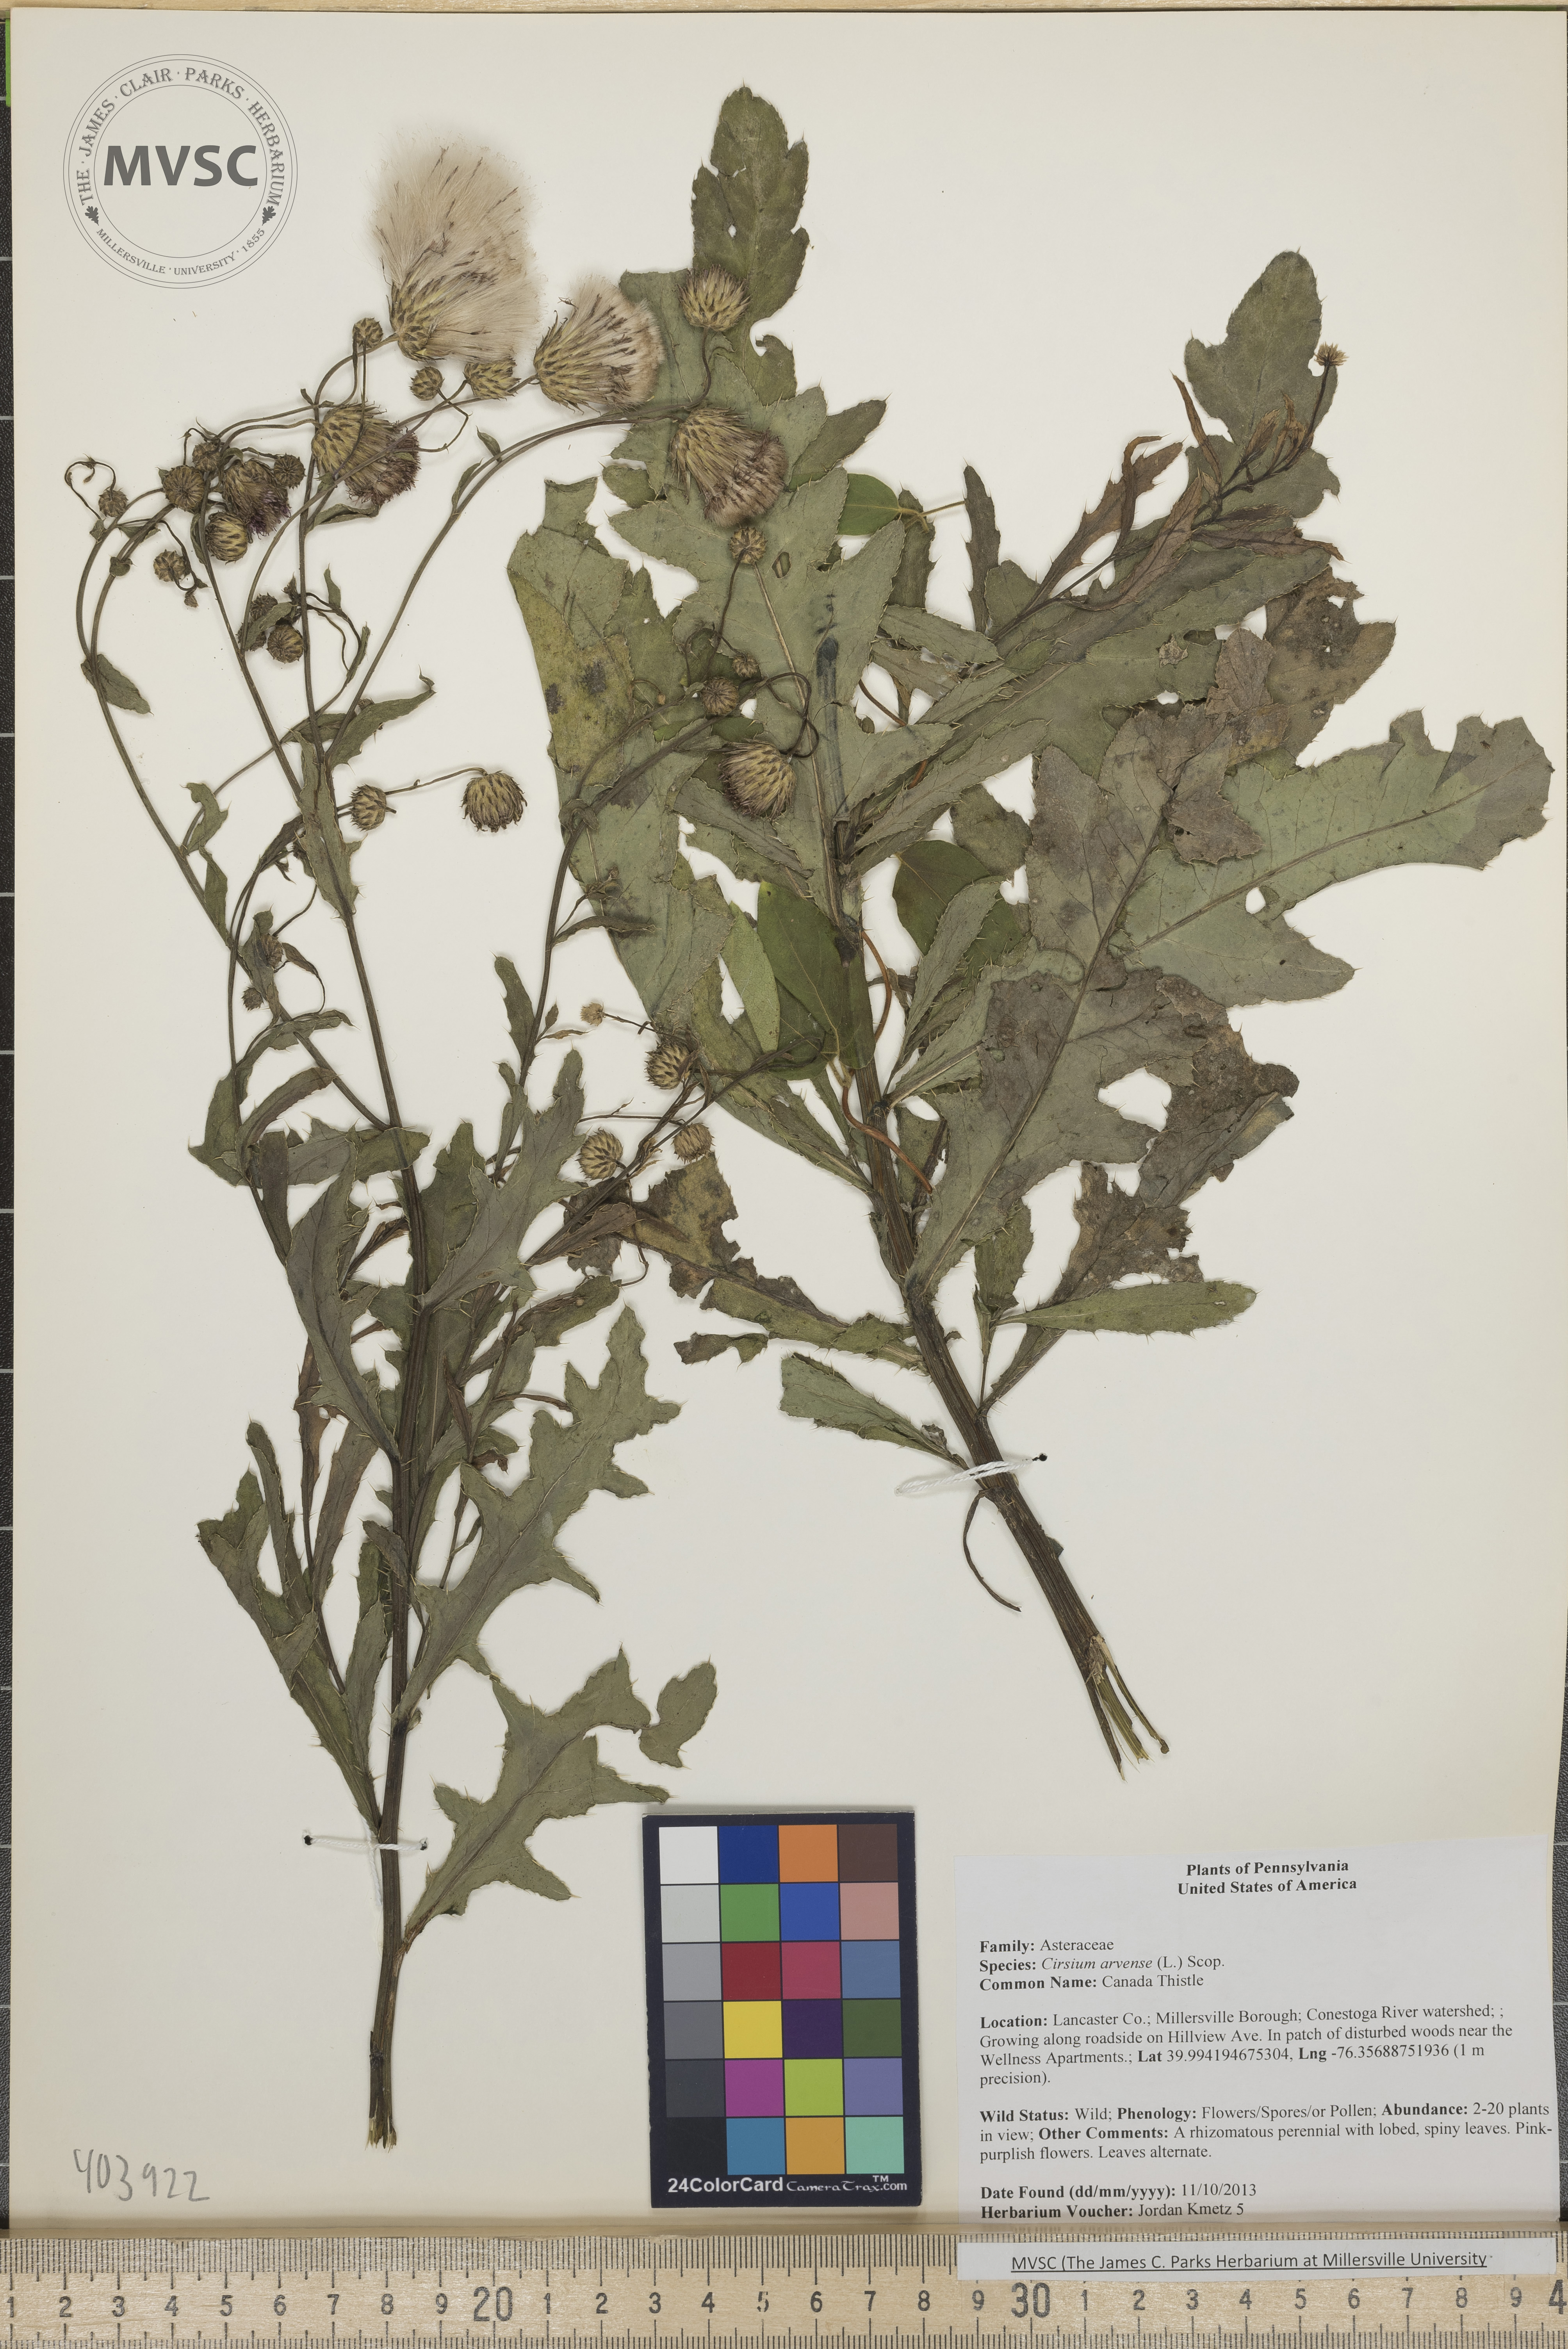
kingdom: Plantae
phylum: Tracheophyta
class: Magnoliopsida
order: Asterales
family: Asteraceae
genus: Cirsium
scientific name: Cirsium arvense
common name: Canada Thistle
